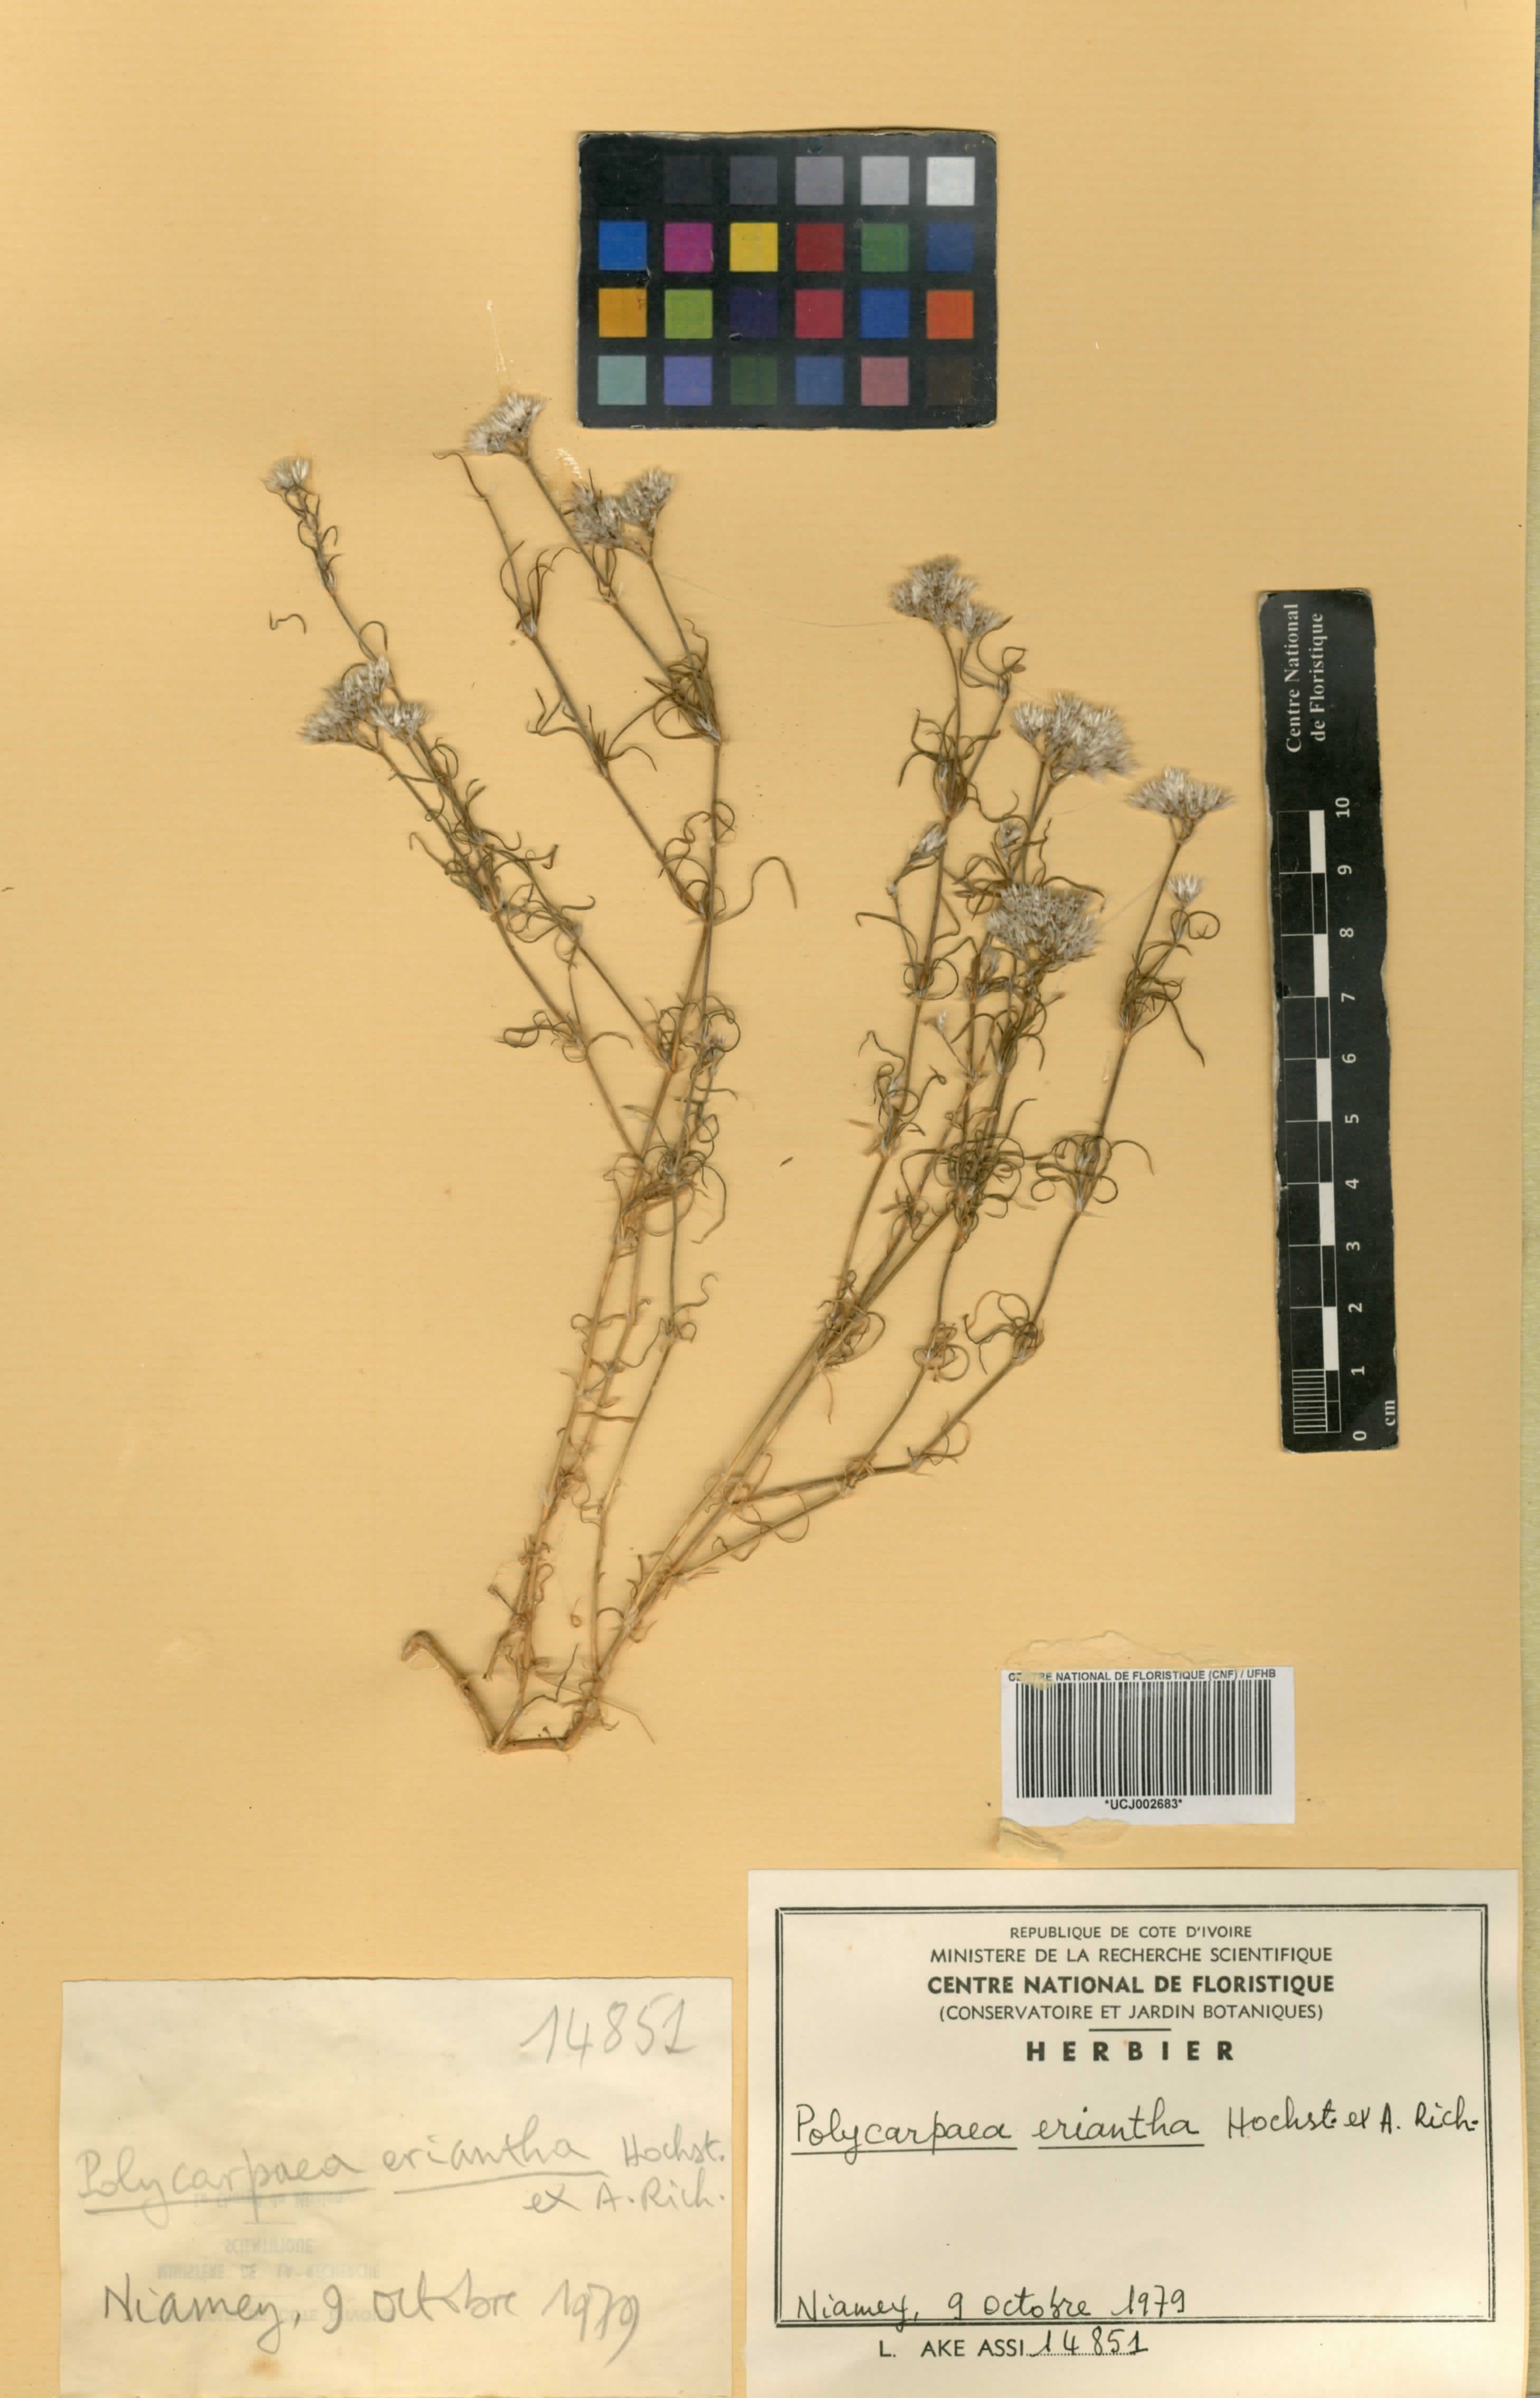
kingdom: Plantae
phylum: Tracheophyta
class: Magnoliopsida
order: Caryophyllales
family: Caryophyllaceae
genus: Polycarpaea
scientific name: Polycarpaea eriantha
